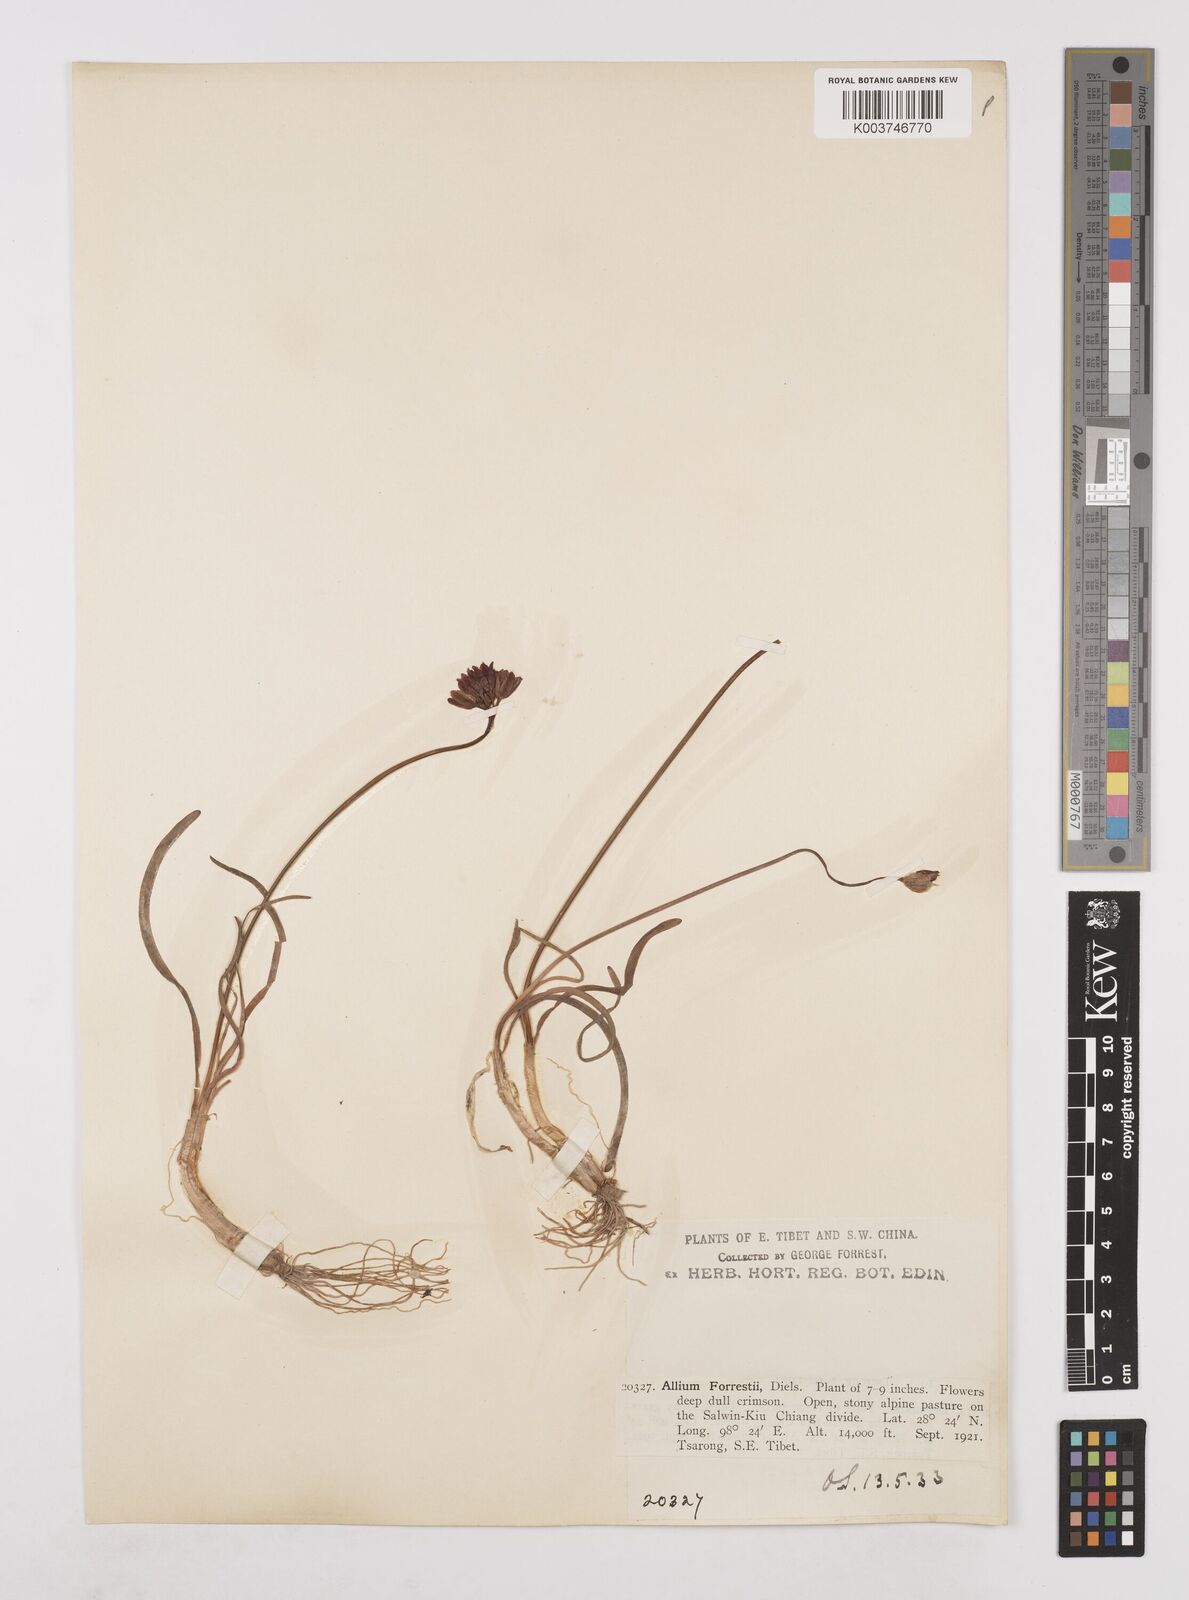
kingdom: Plantae
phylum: Tracheophyta
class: Liliopsida
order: Asparagales
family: Amaryllidaceae
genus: Allium
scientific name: Allium forrestii
